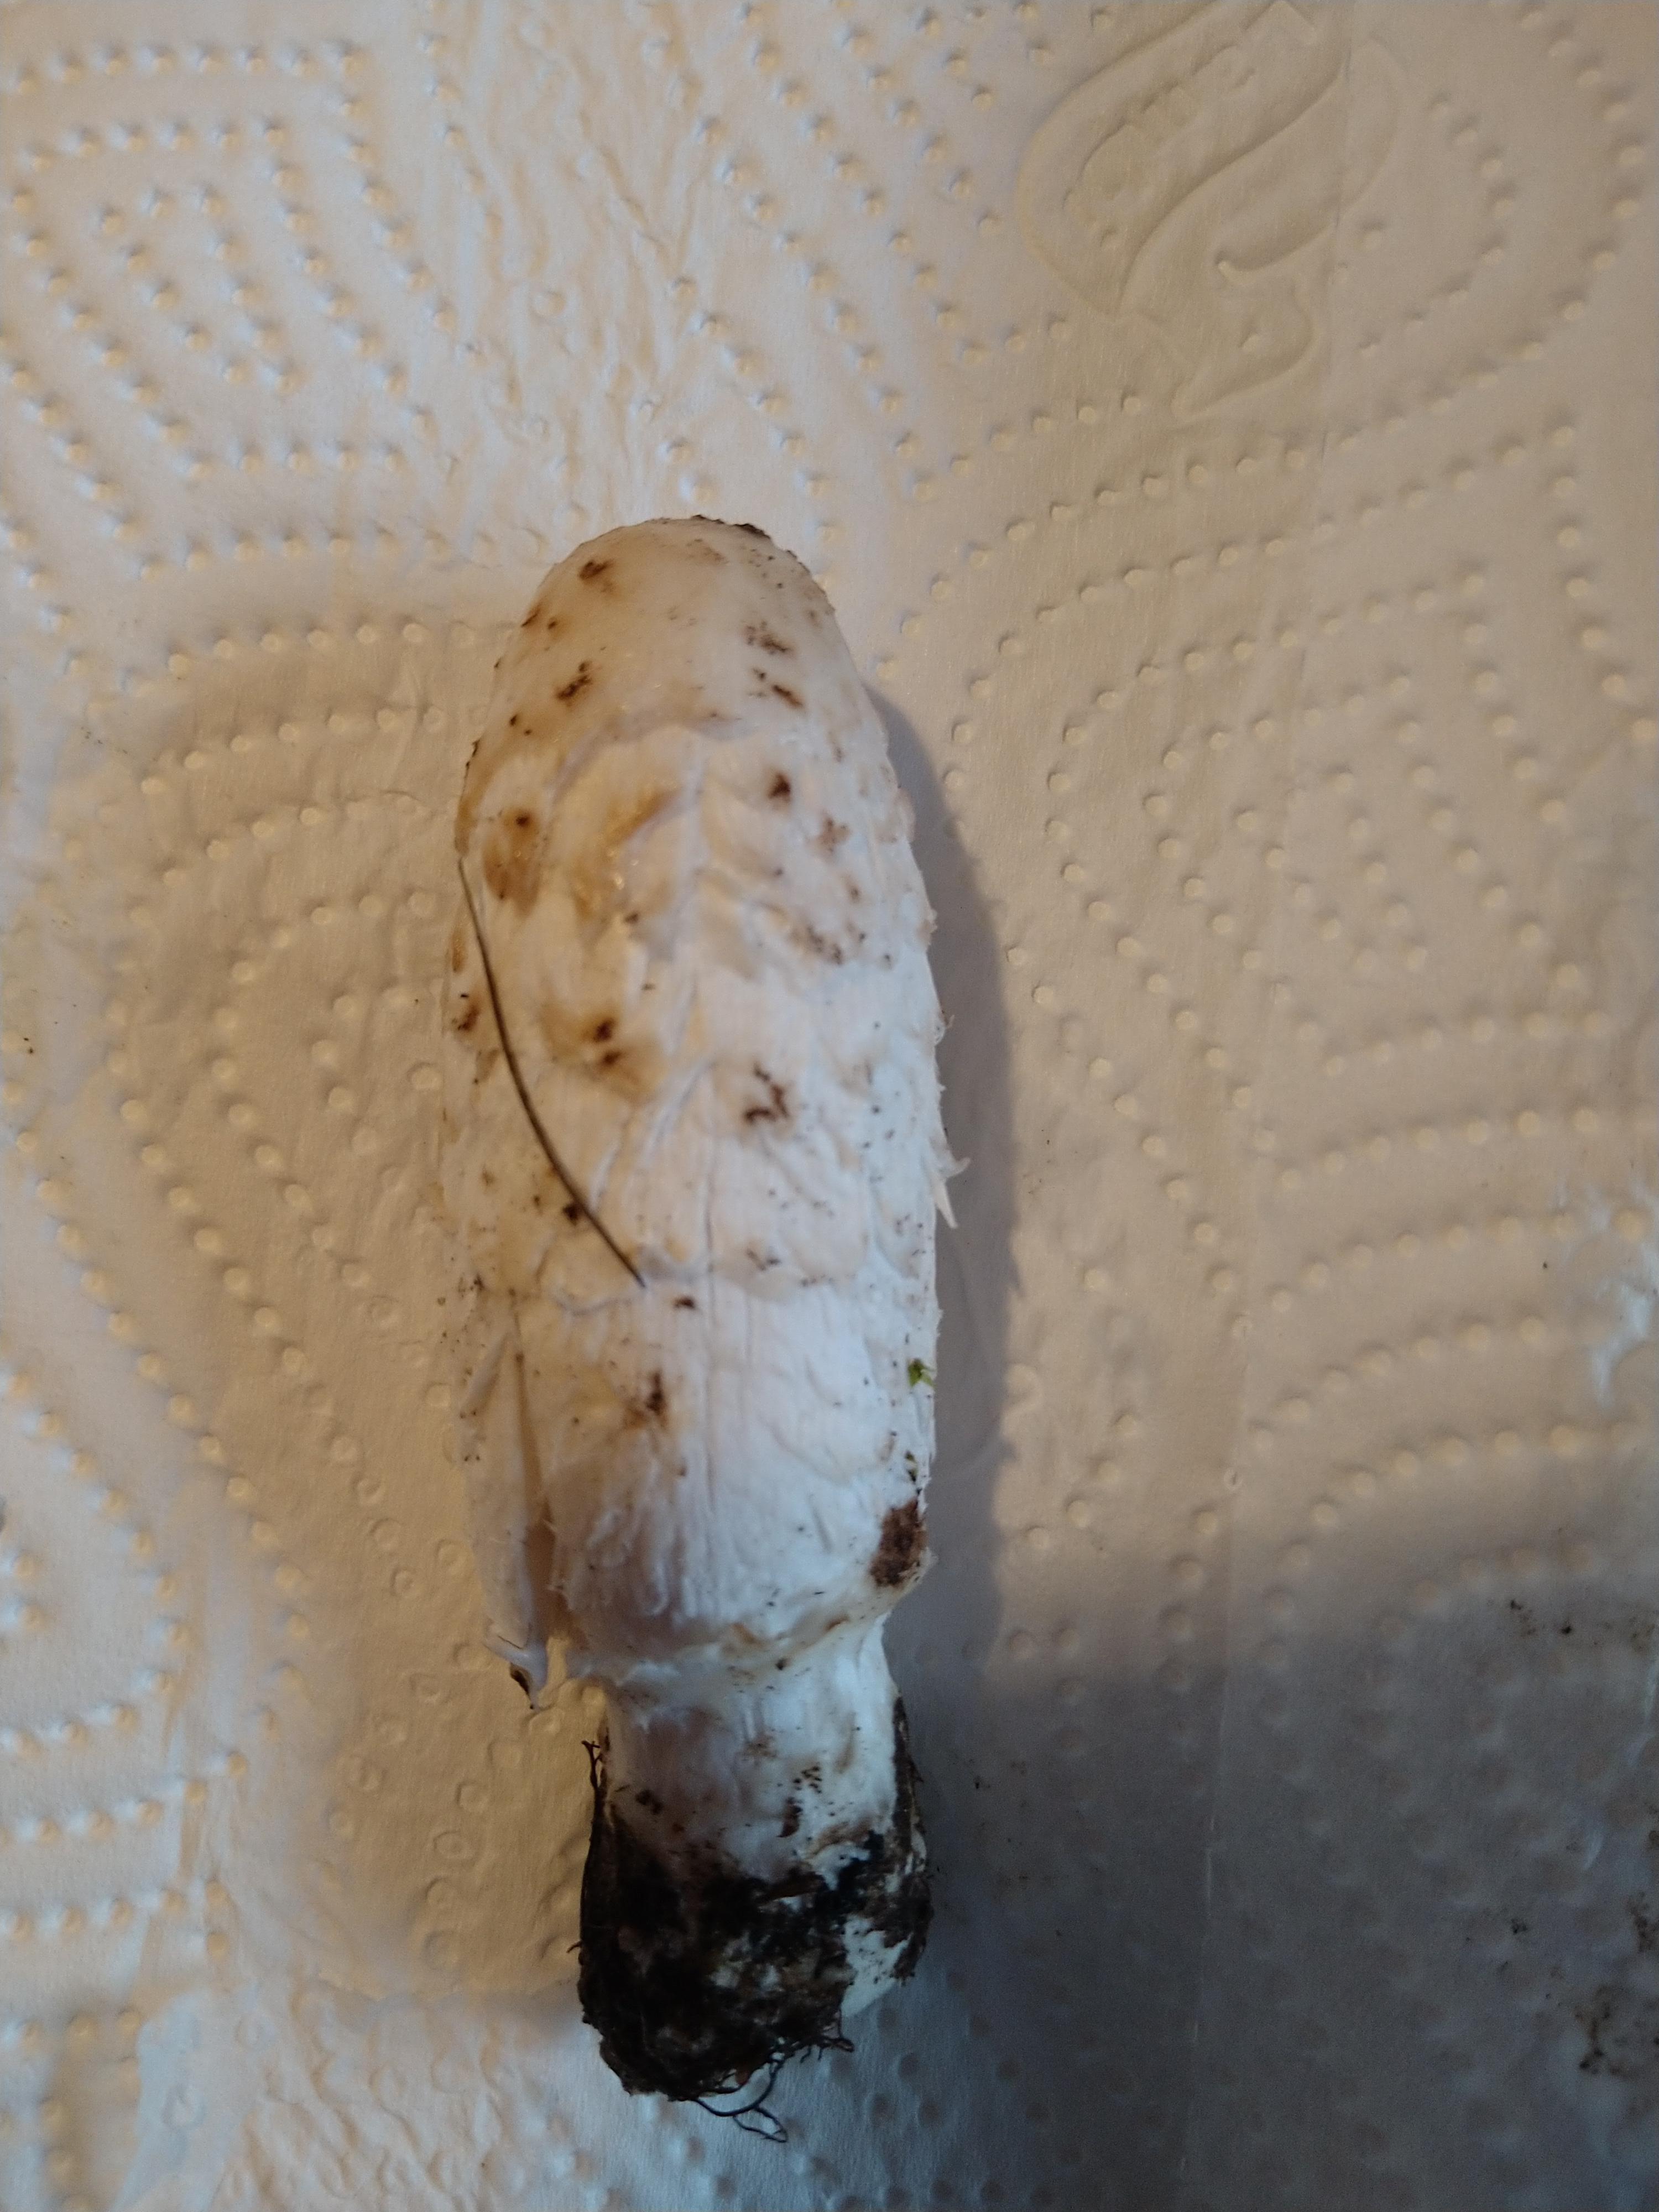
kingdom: Fungi
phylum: Basidiomycota
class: Agaricomycetes
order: Agaricales
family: Agaricaceae
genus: Coprinus
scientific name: Coprinus comatus
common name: stor parykhat
